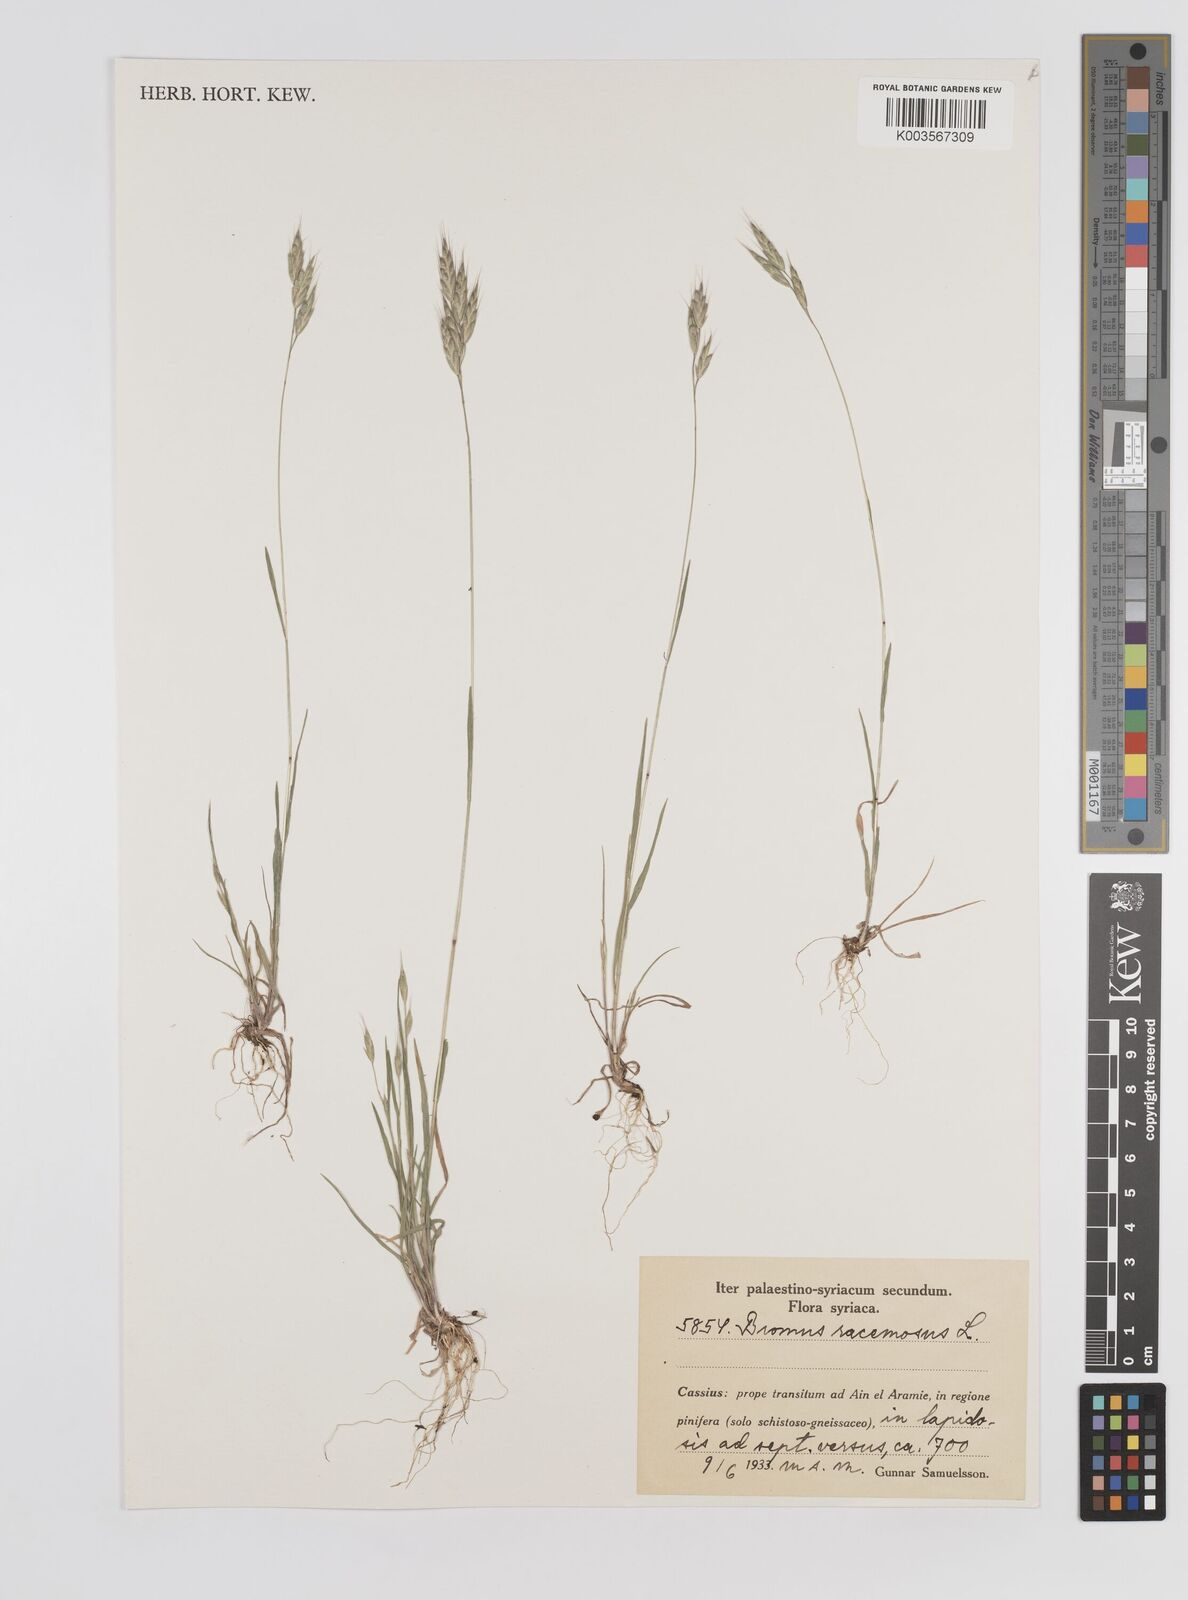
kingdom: Plantae
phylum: Tracheophyta
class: Liliopsida
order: Poales
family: Poaceae
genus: Bromus
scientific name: Bromus racemosus
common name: Bald brome
